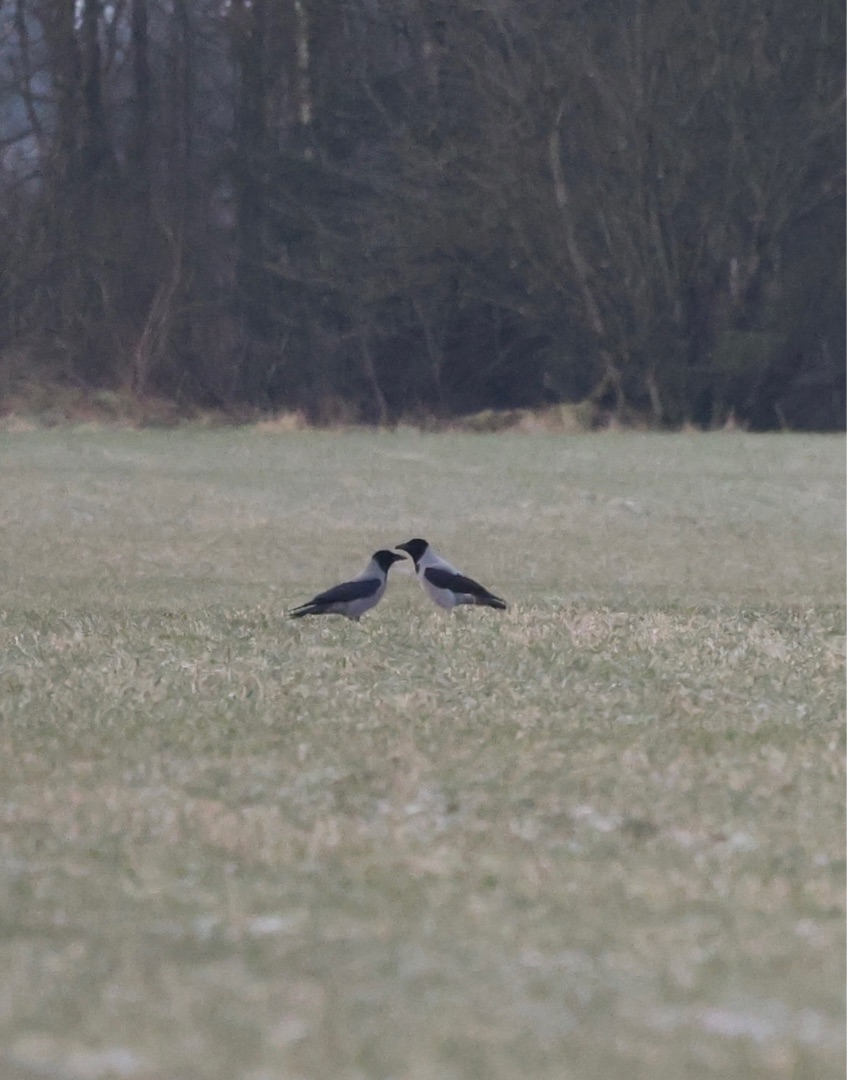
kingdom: Animalia
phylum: Chordata
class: Aves
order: Passeriformes
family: Corvidae
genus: Corvus
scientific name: Corvus cornix
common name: Gråkrage
